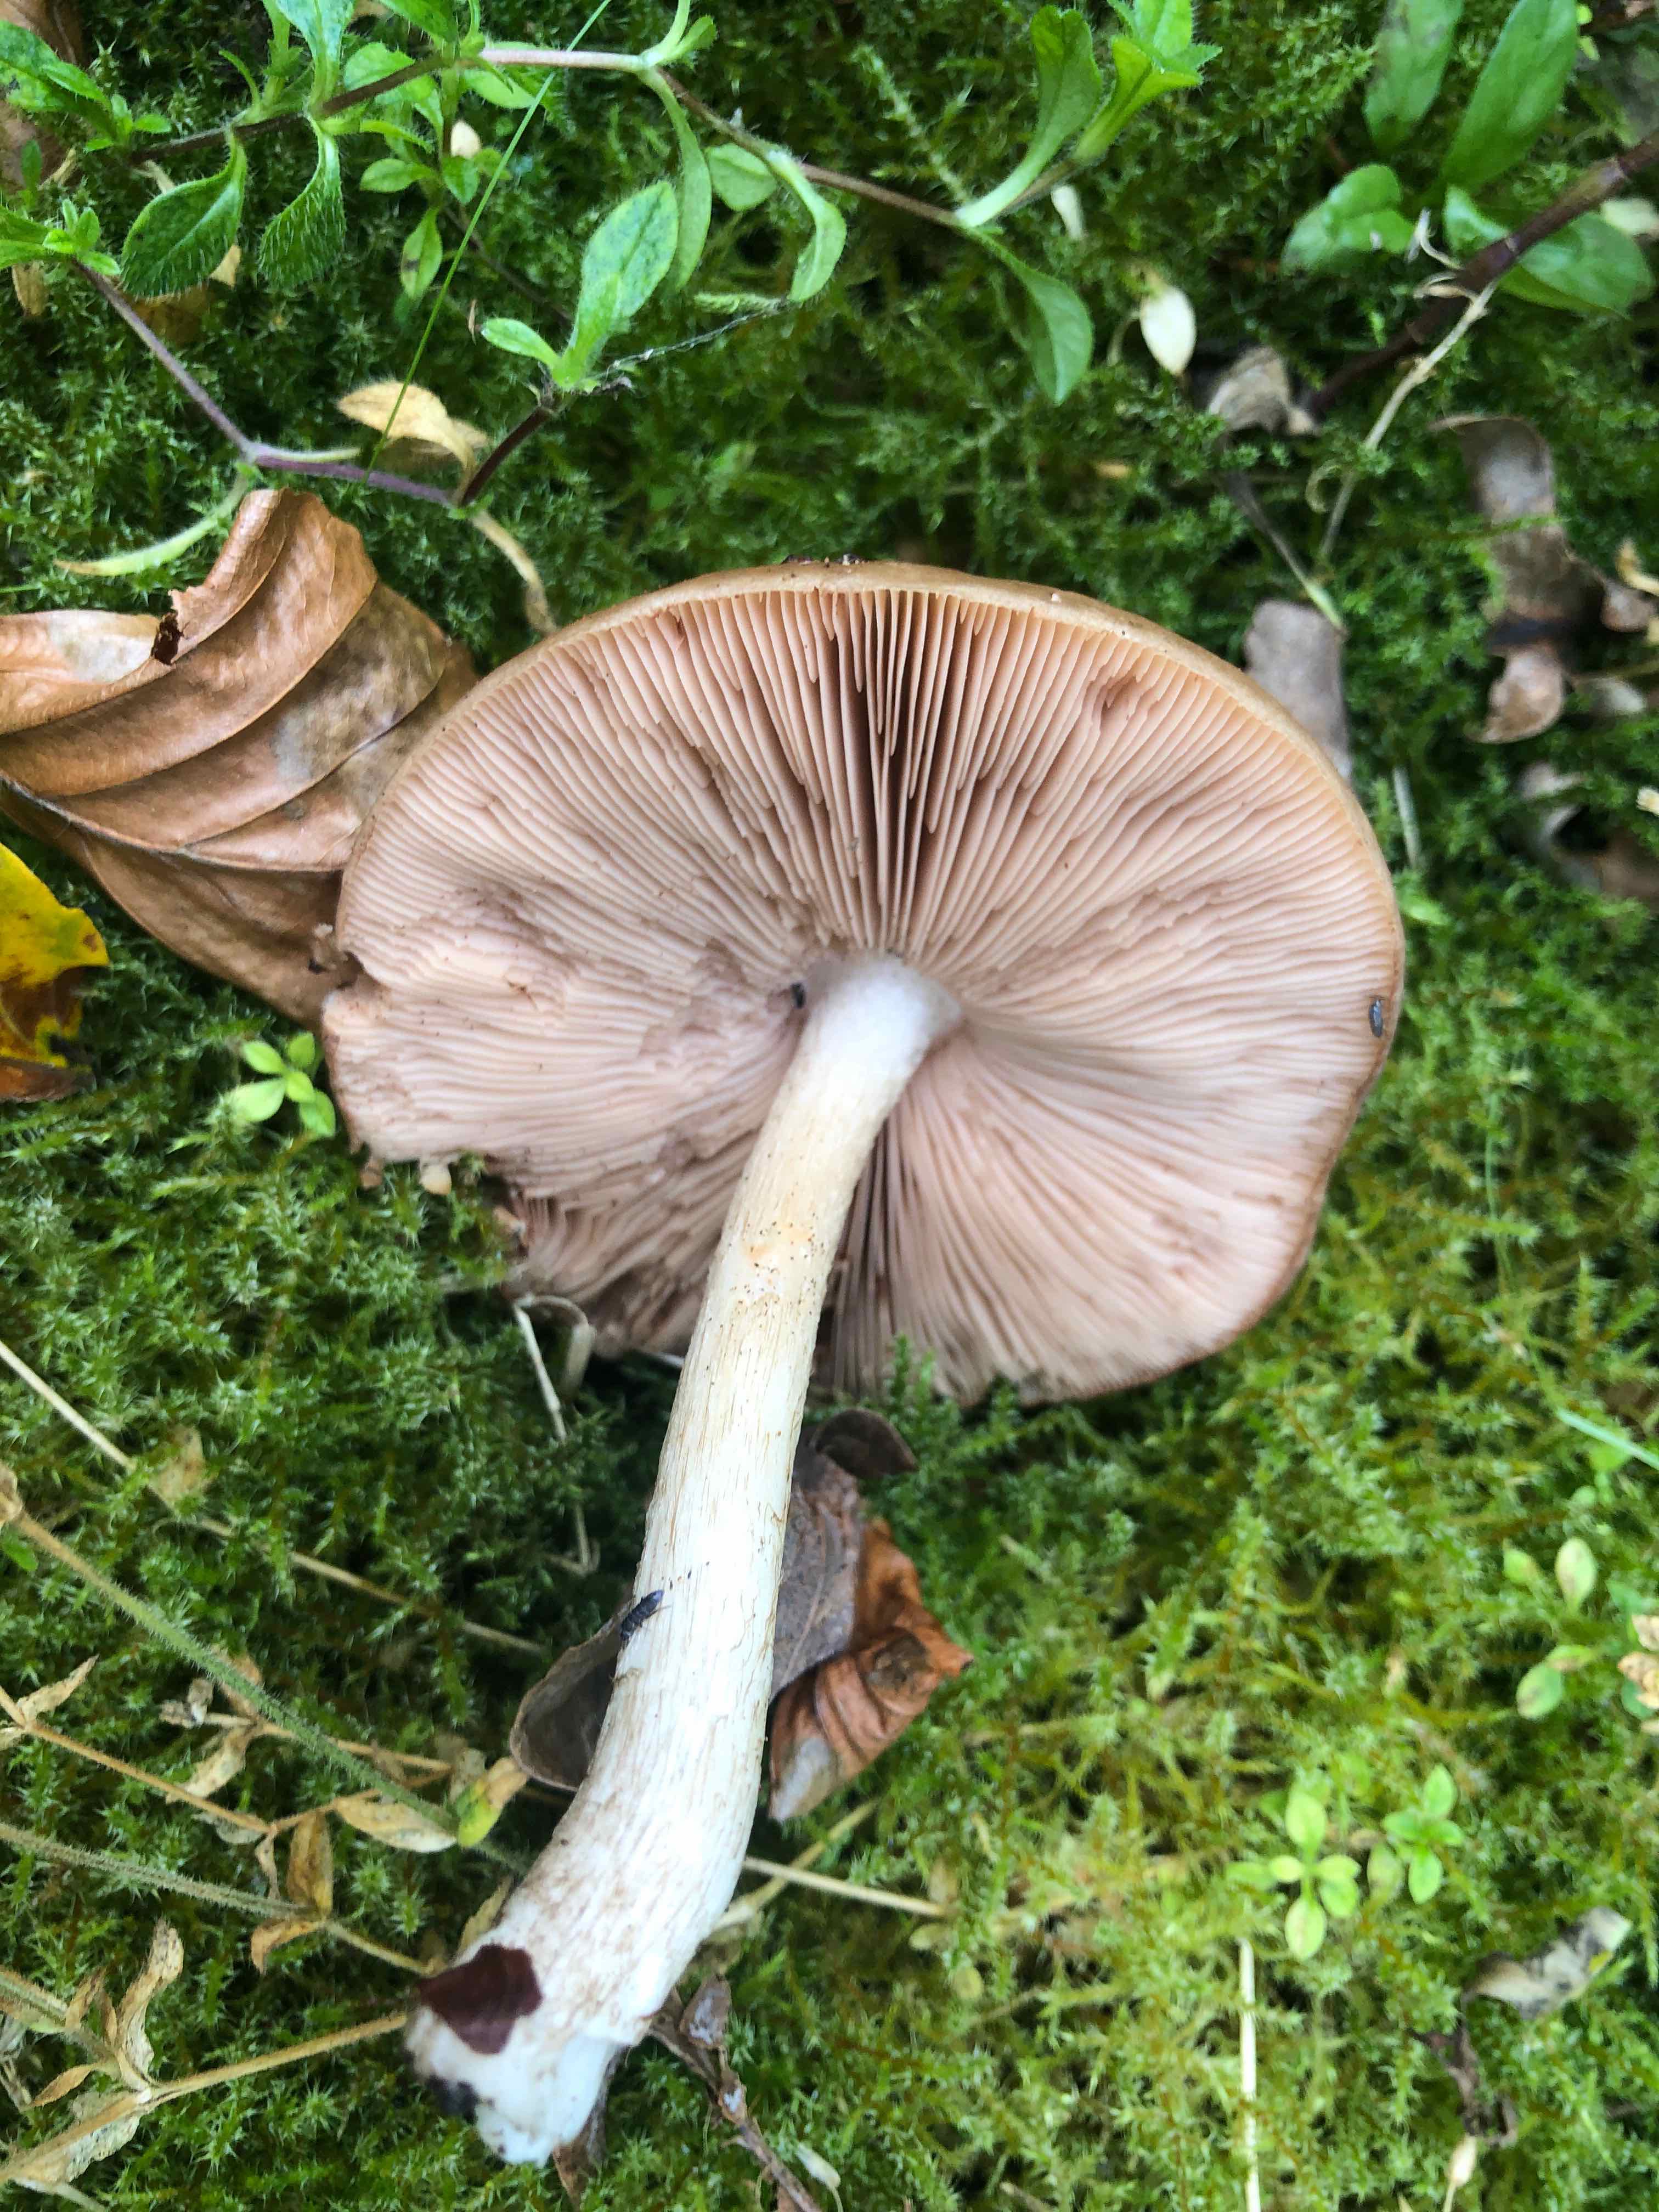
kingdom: Fungi
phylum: Basidiomycota
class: Agaricomycetes
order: Agaricales
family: Pluteaceae
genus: Pluteus
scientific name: Pluteus cervinus
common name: sodfarvet skærmhat
